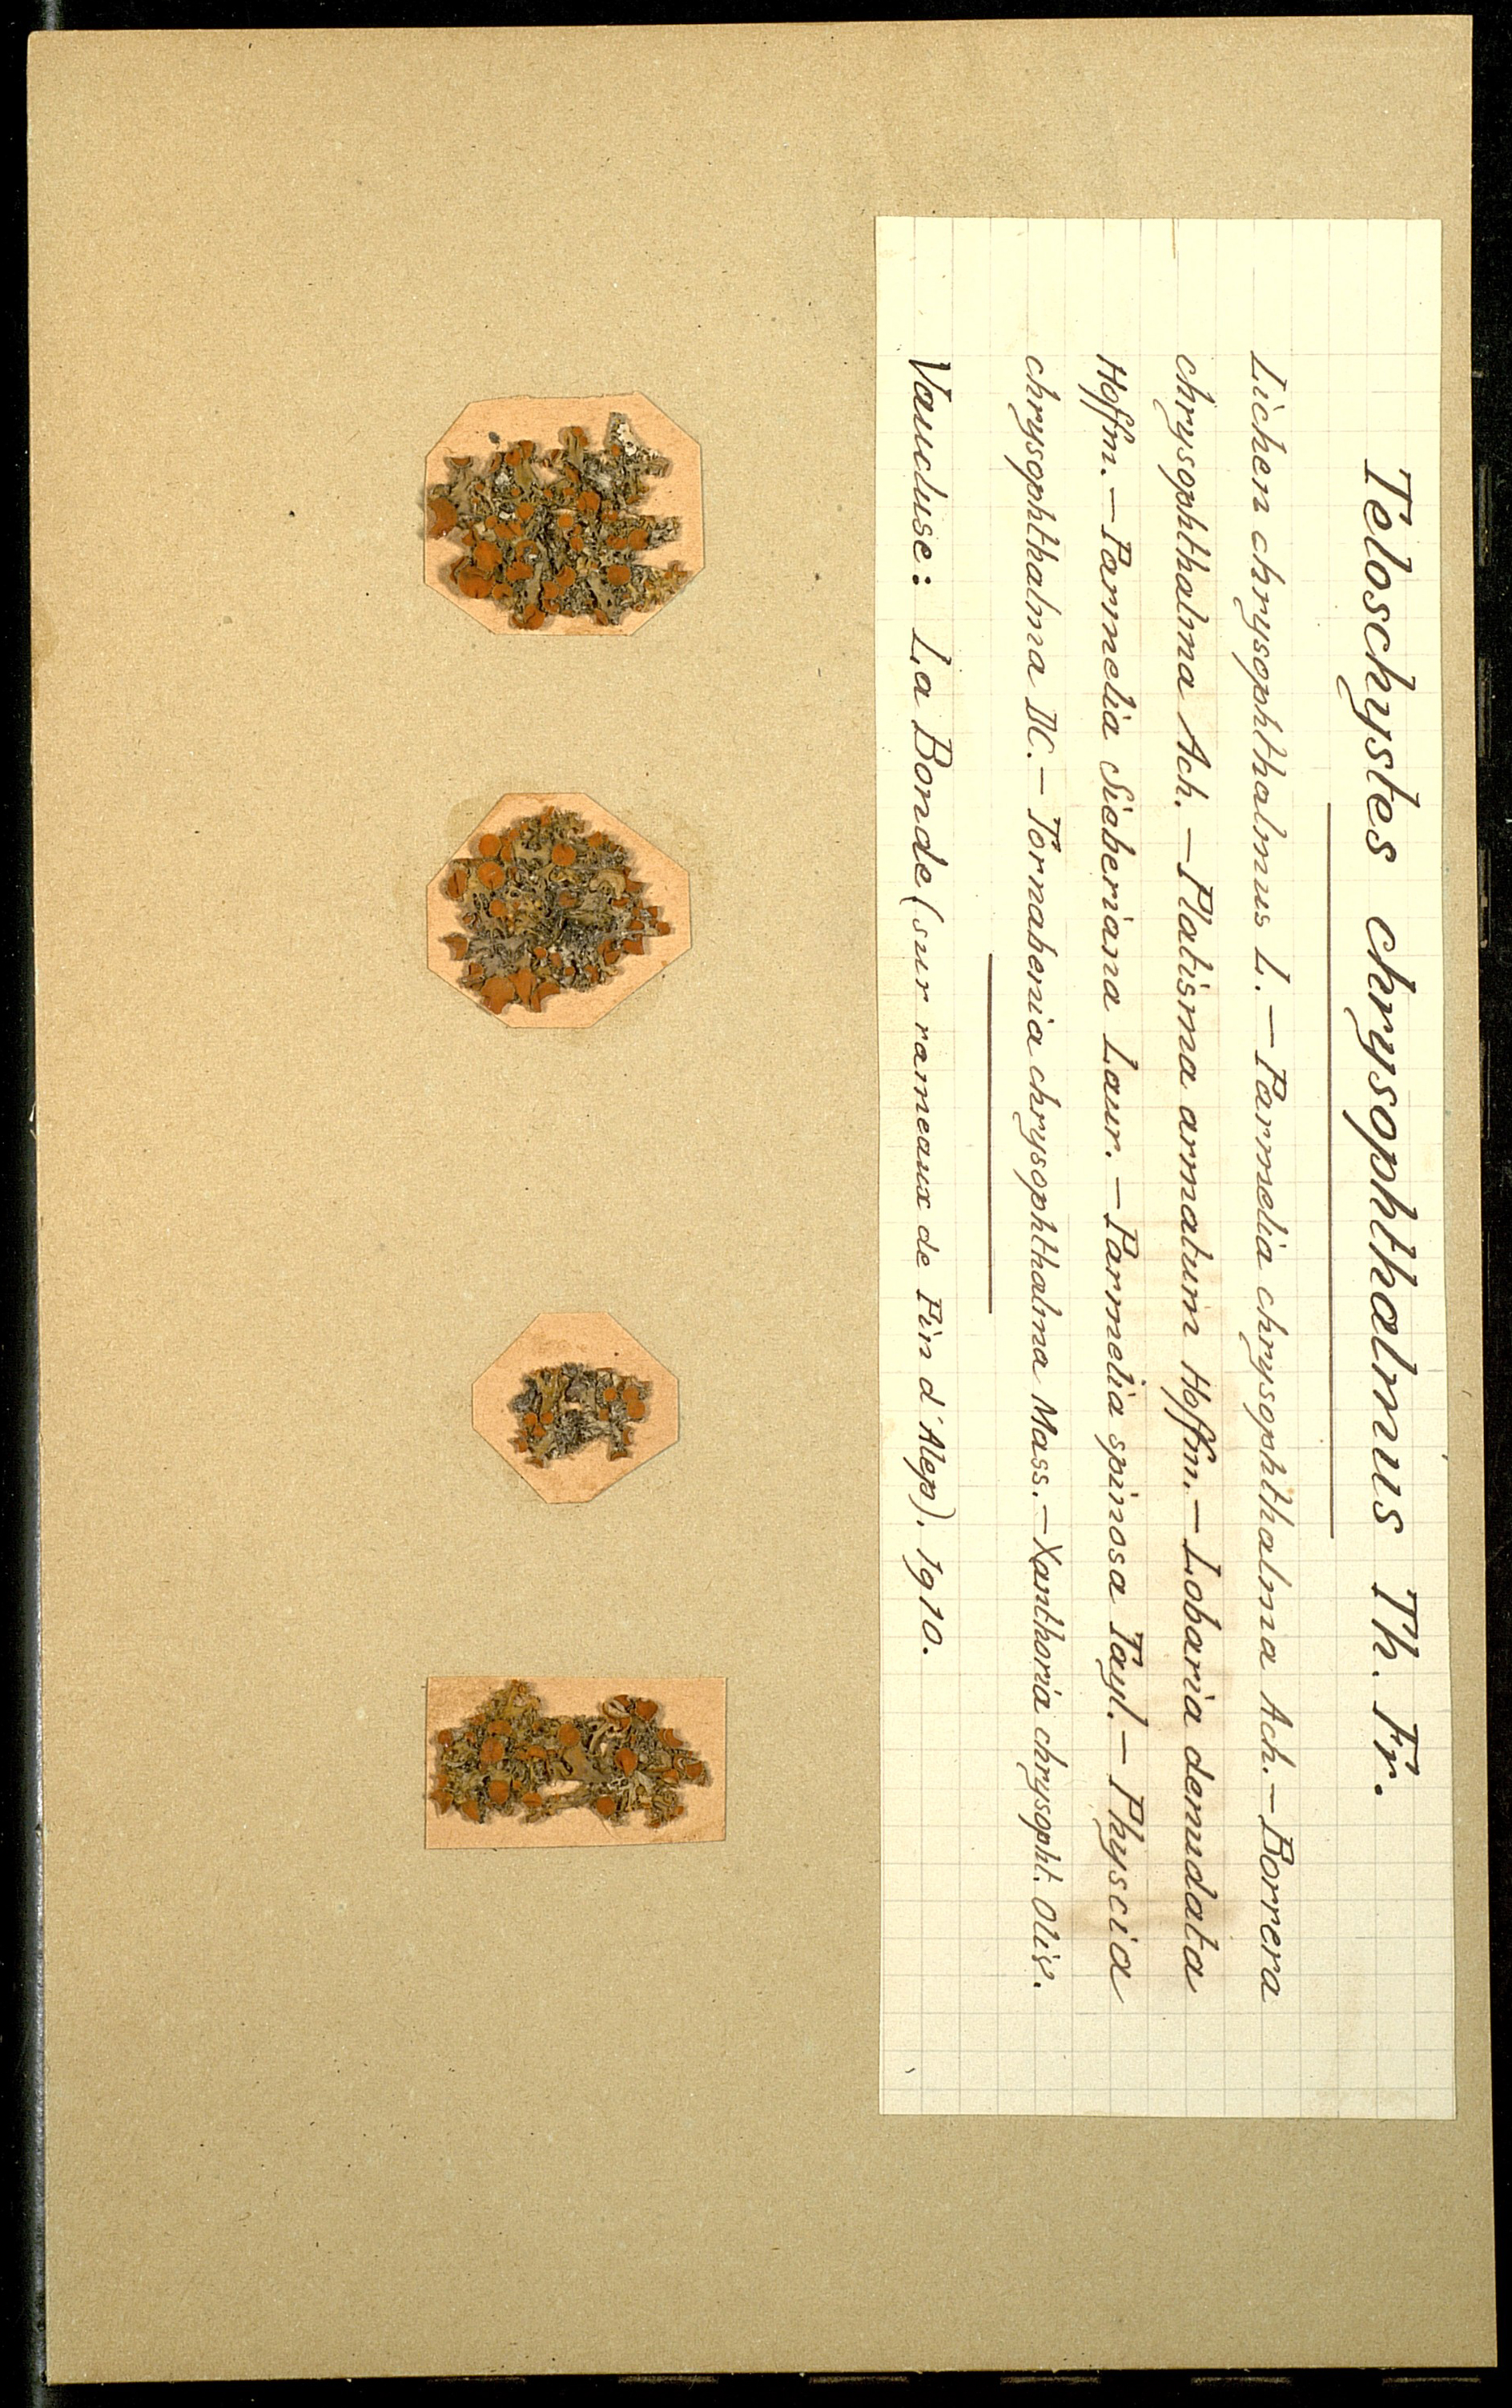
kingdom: Fungi
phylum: Ascomycota
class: Lecanoromycetes
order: Teloschistales
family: Teloschistaceae
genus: Niorma
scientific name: Niorma chrysophthalma
